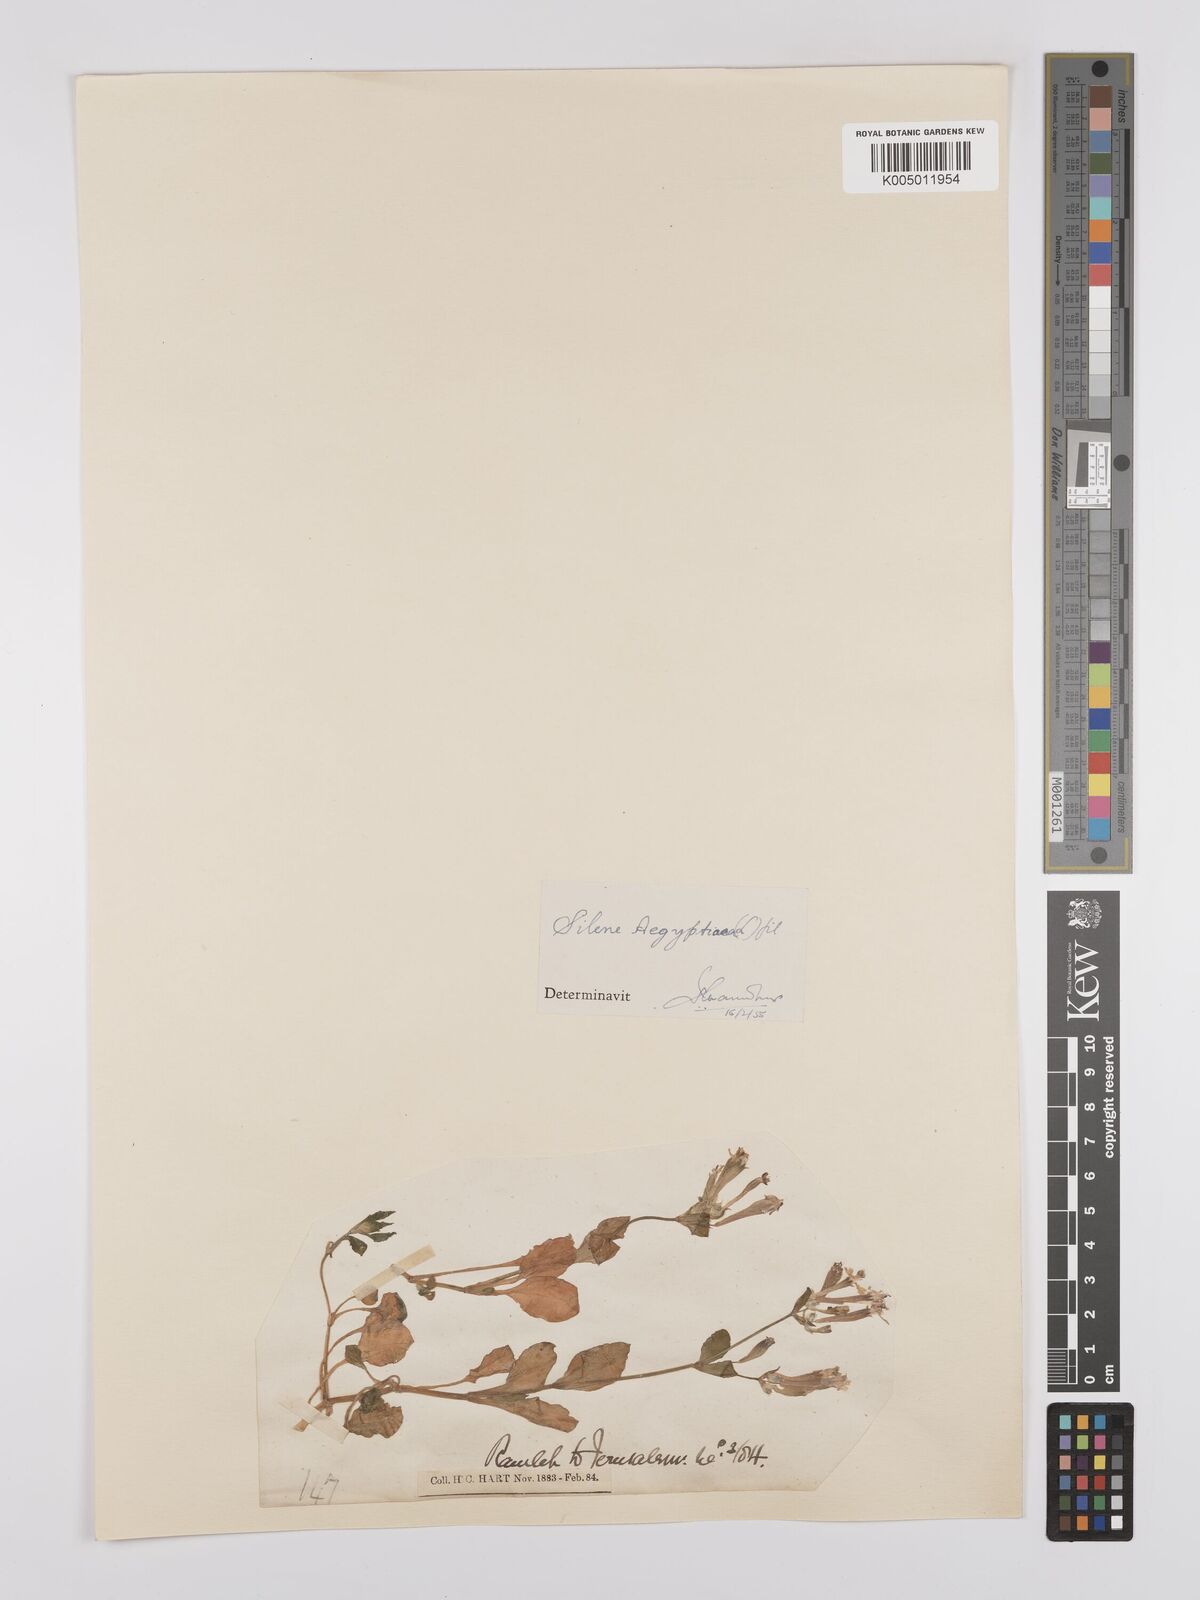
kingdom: Plantae
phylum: Tracheophyta
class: Magnoliopsida
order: Caryophyllales
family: Caryophyllaceae
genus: Silene
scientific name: Silene aegyptiaca
